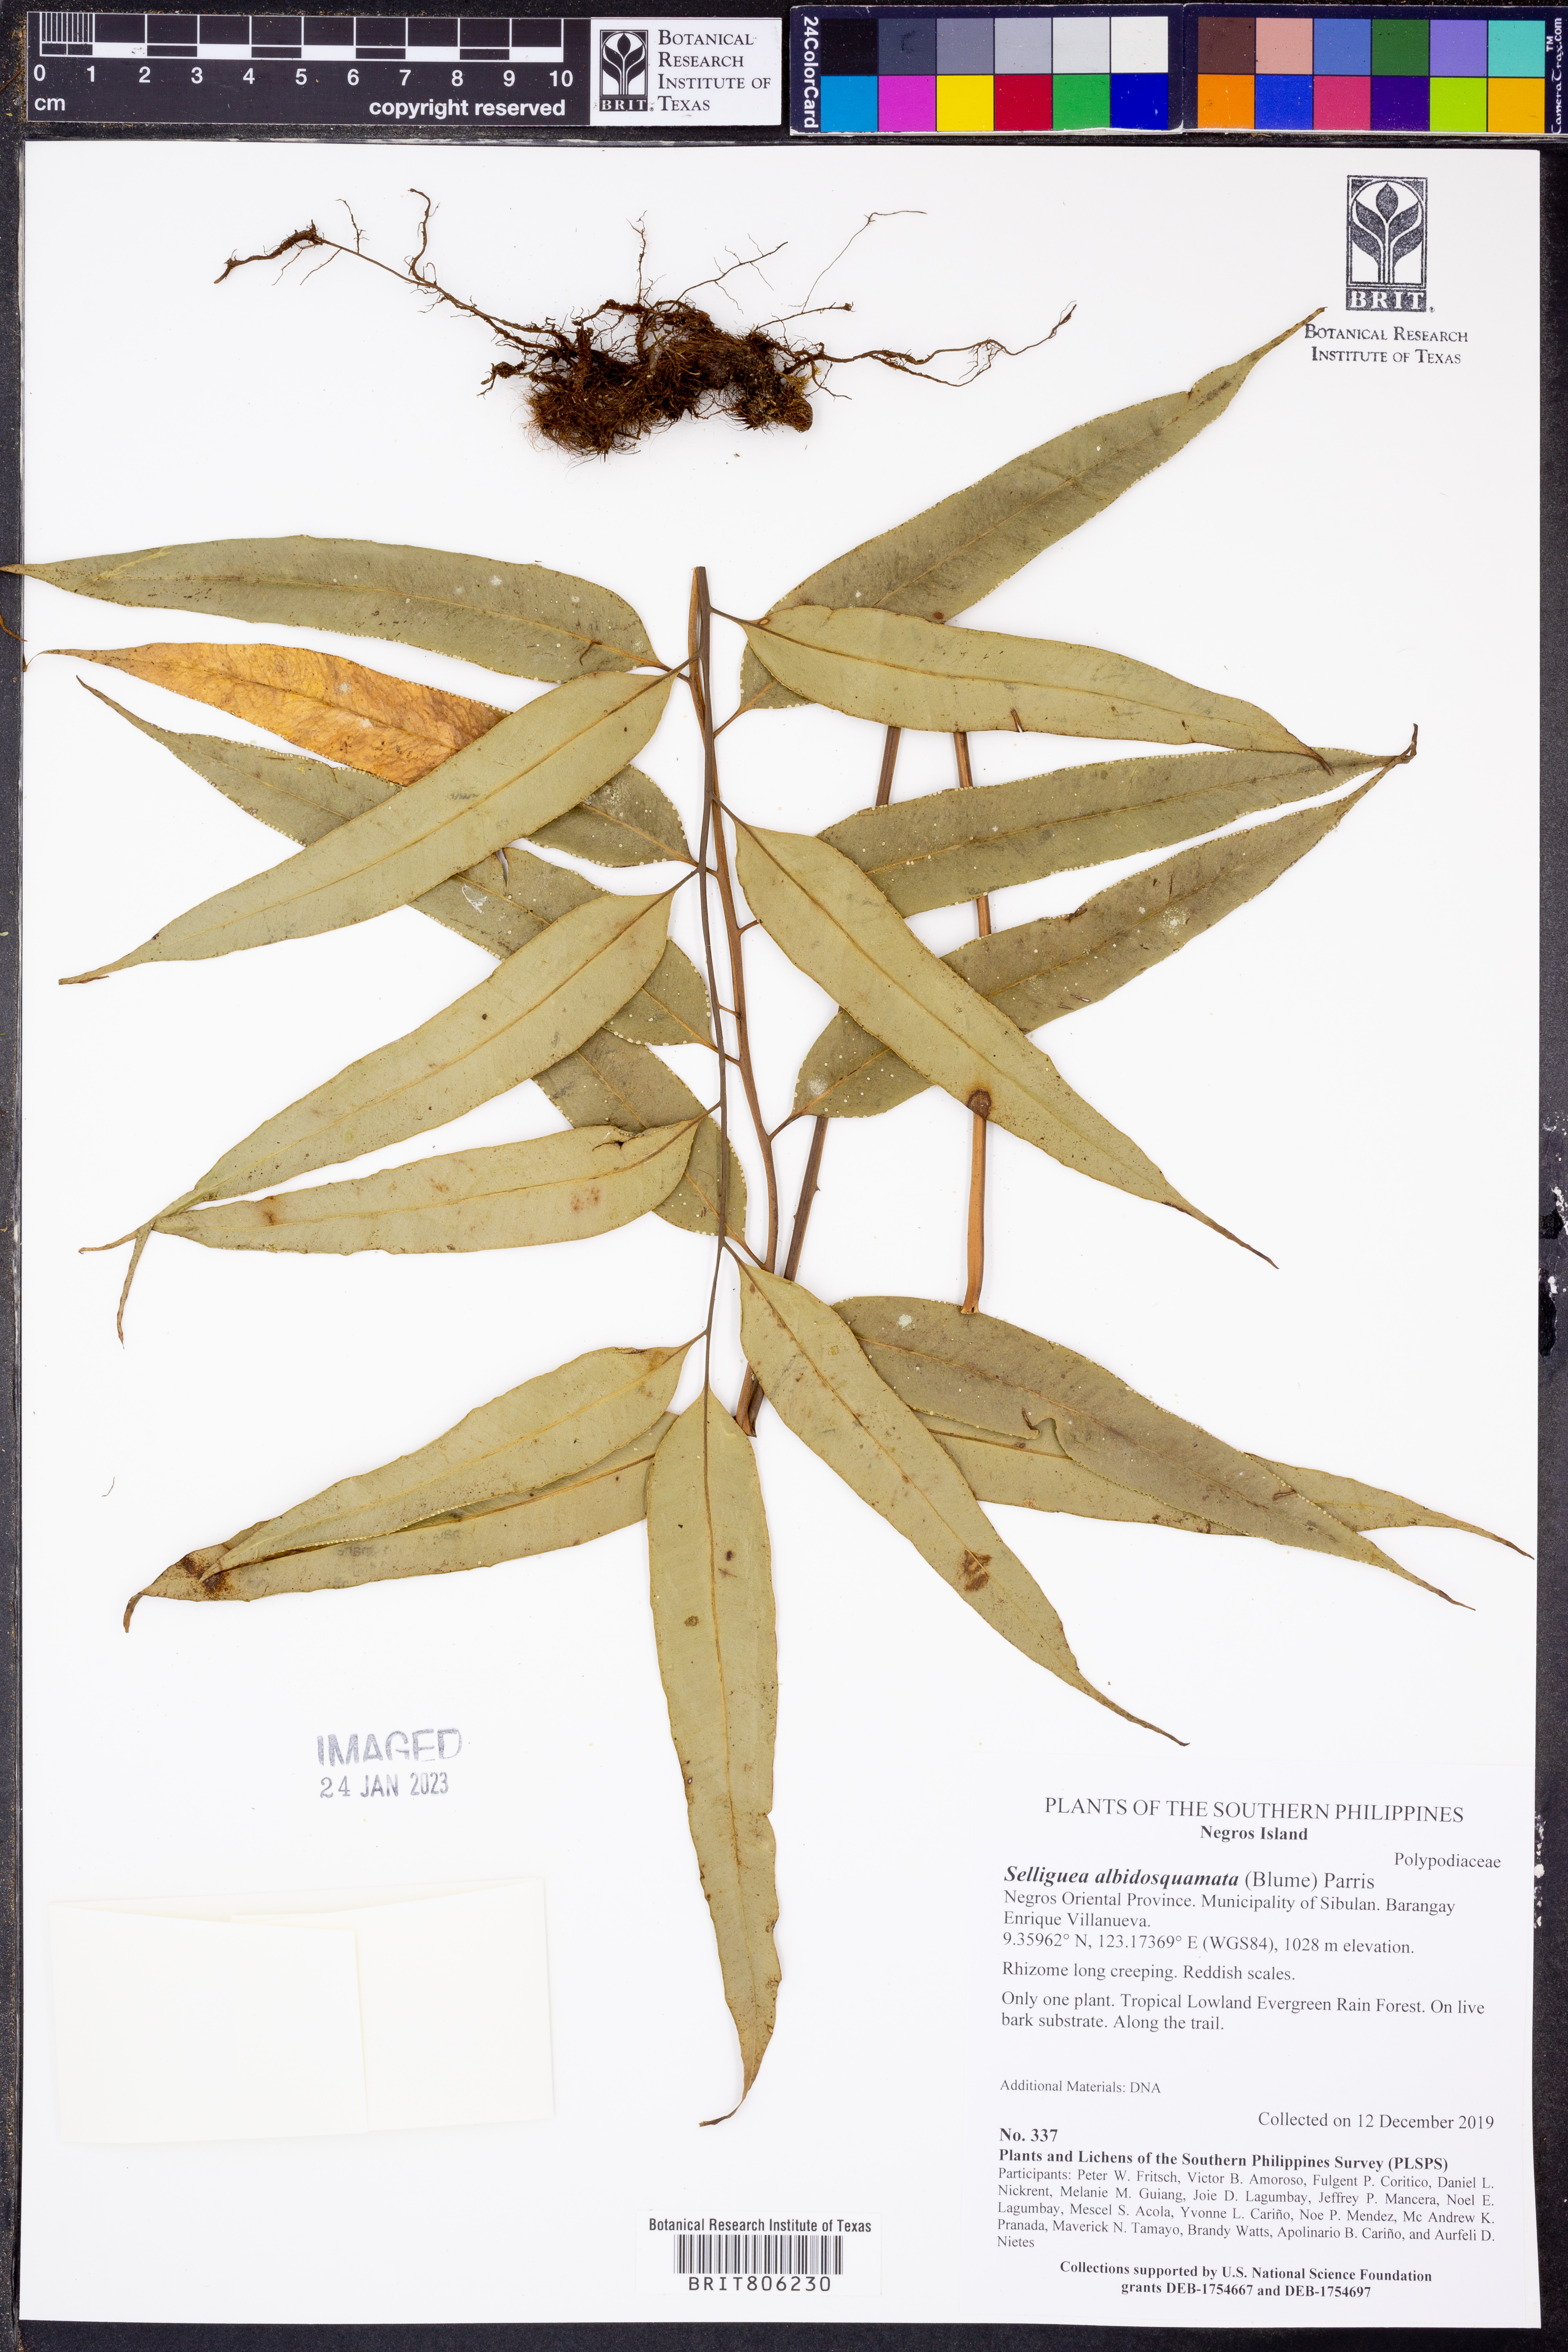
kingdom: Plantae
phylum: Tracheophyta
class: Polypodiopsida
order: Polypodiales
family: Polypodiaceae
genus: Selliguea
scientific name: Selliguea albidosquamata
